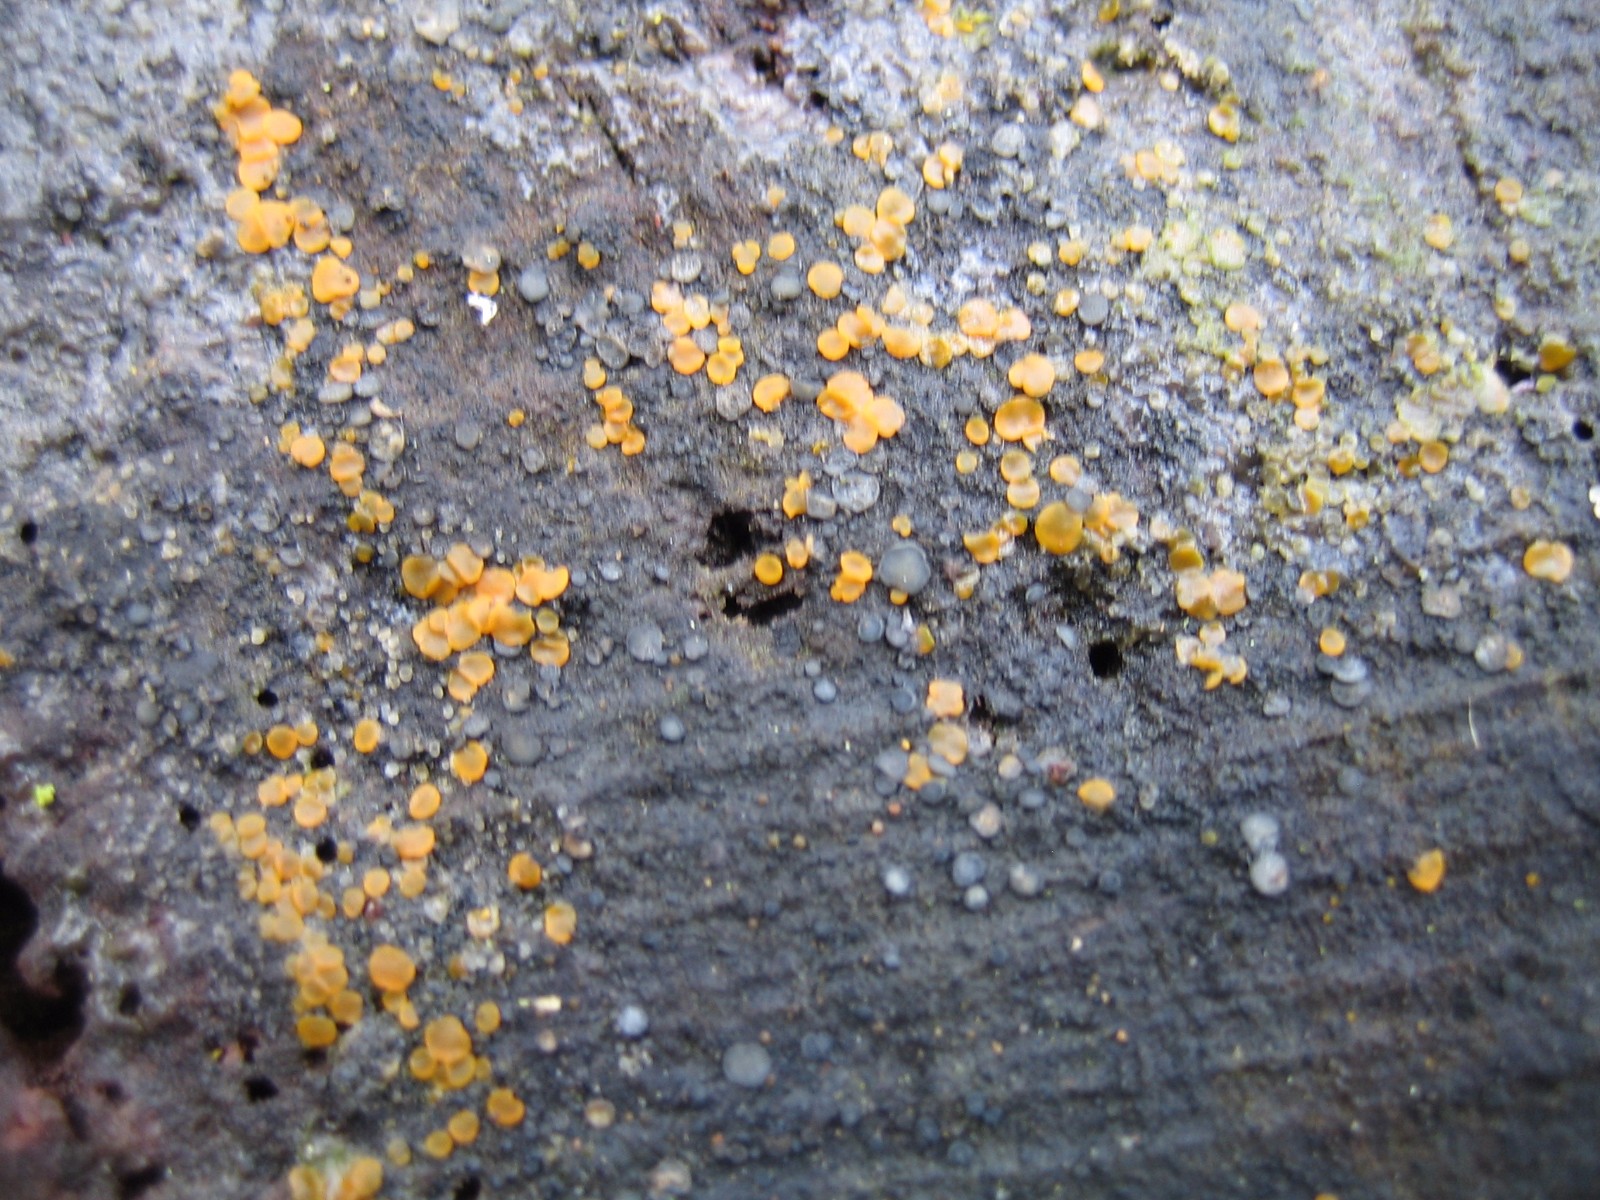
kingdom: Fungi
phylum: Ascomycota
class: Orbiliomycetes
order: Orbiliales
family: Orbiliaceae
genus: Orbilia
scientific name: Orbilia xanthostigma
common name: krumsporet voksskive
